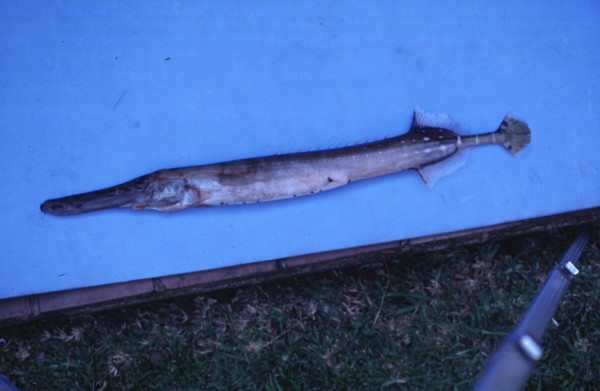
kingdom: Animalia
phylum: Chordata
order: Syngnathiformes
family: Aulostomidae
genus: Aulostomus
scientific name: Aulostomus chinensis
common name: Chinese trumpetfish
